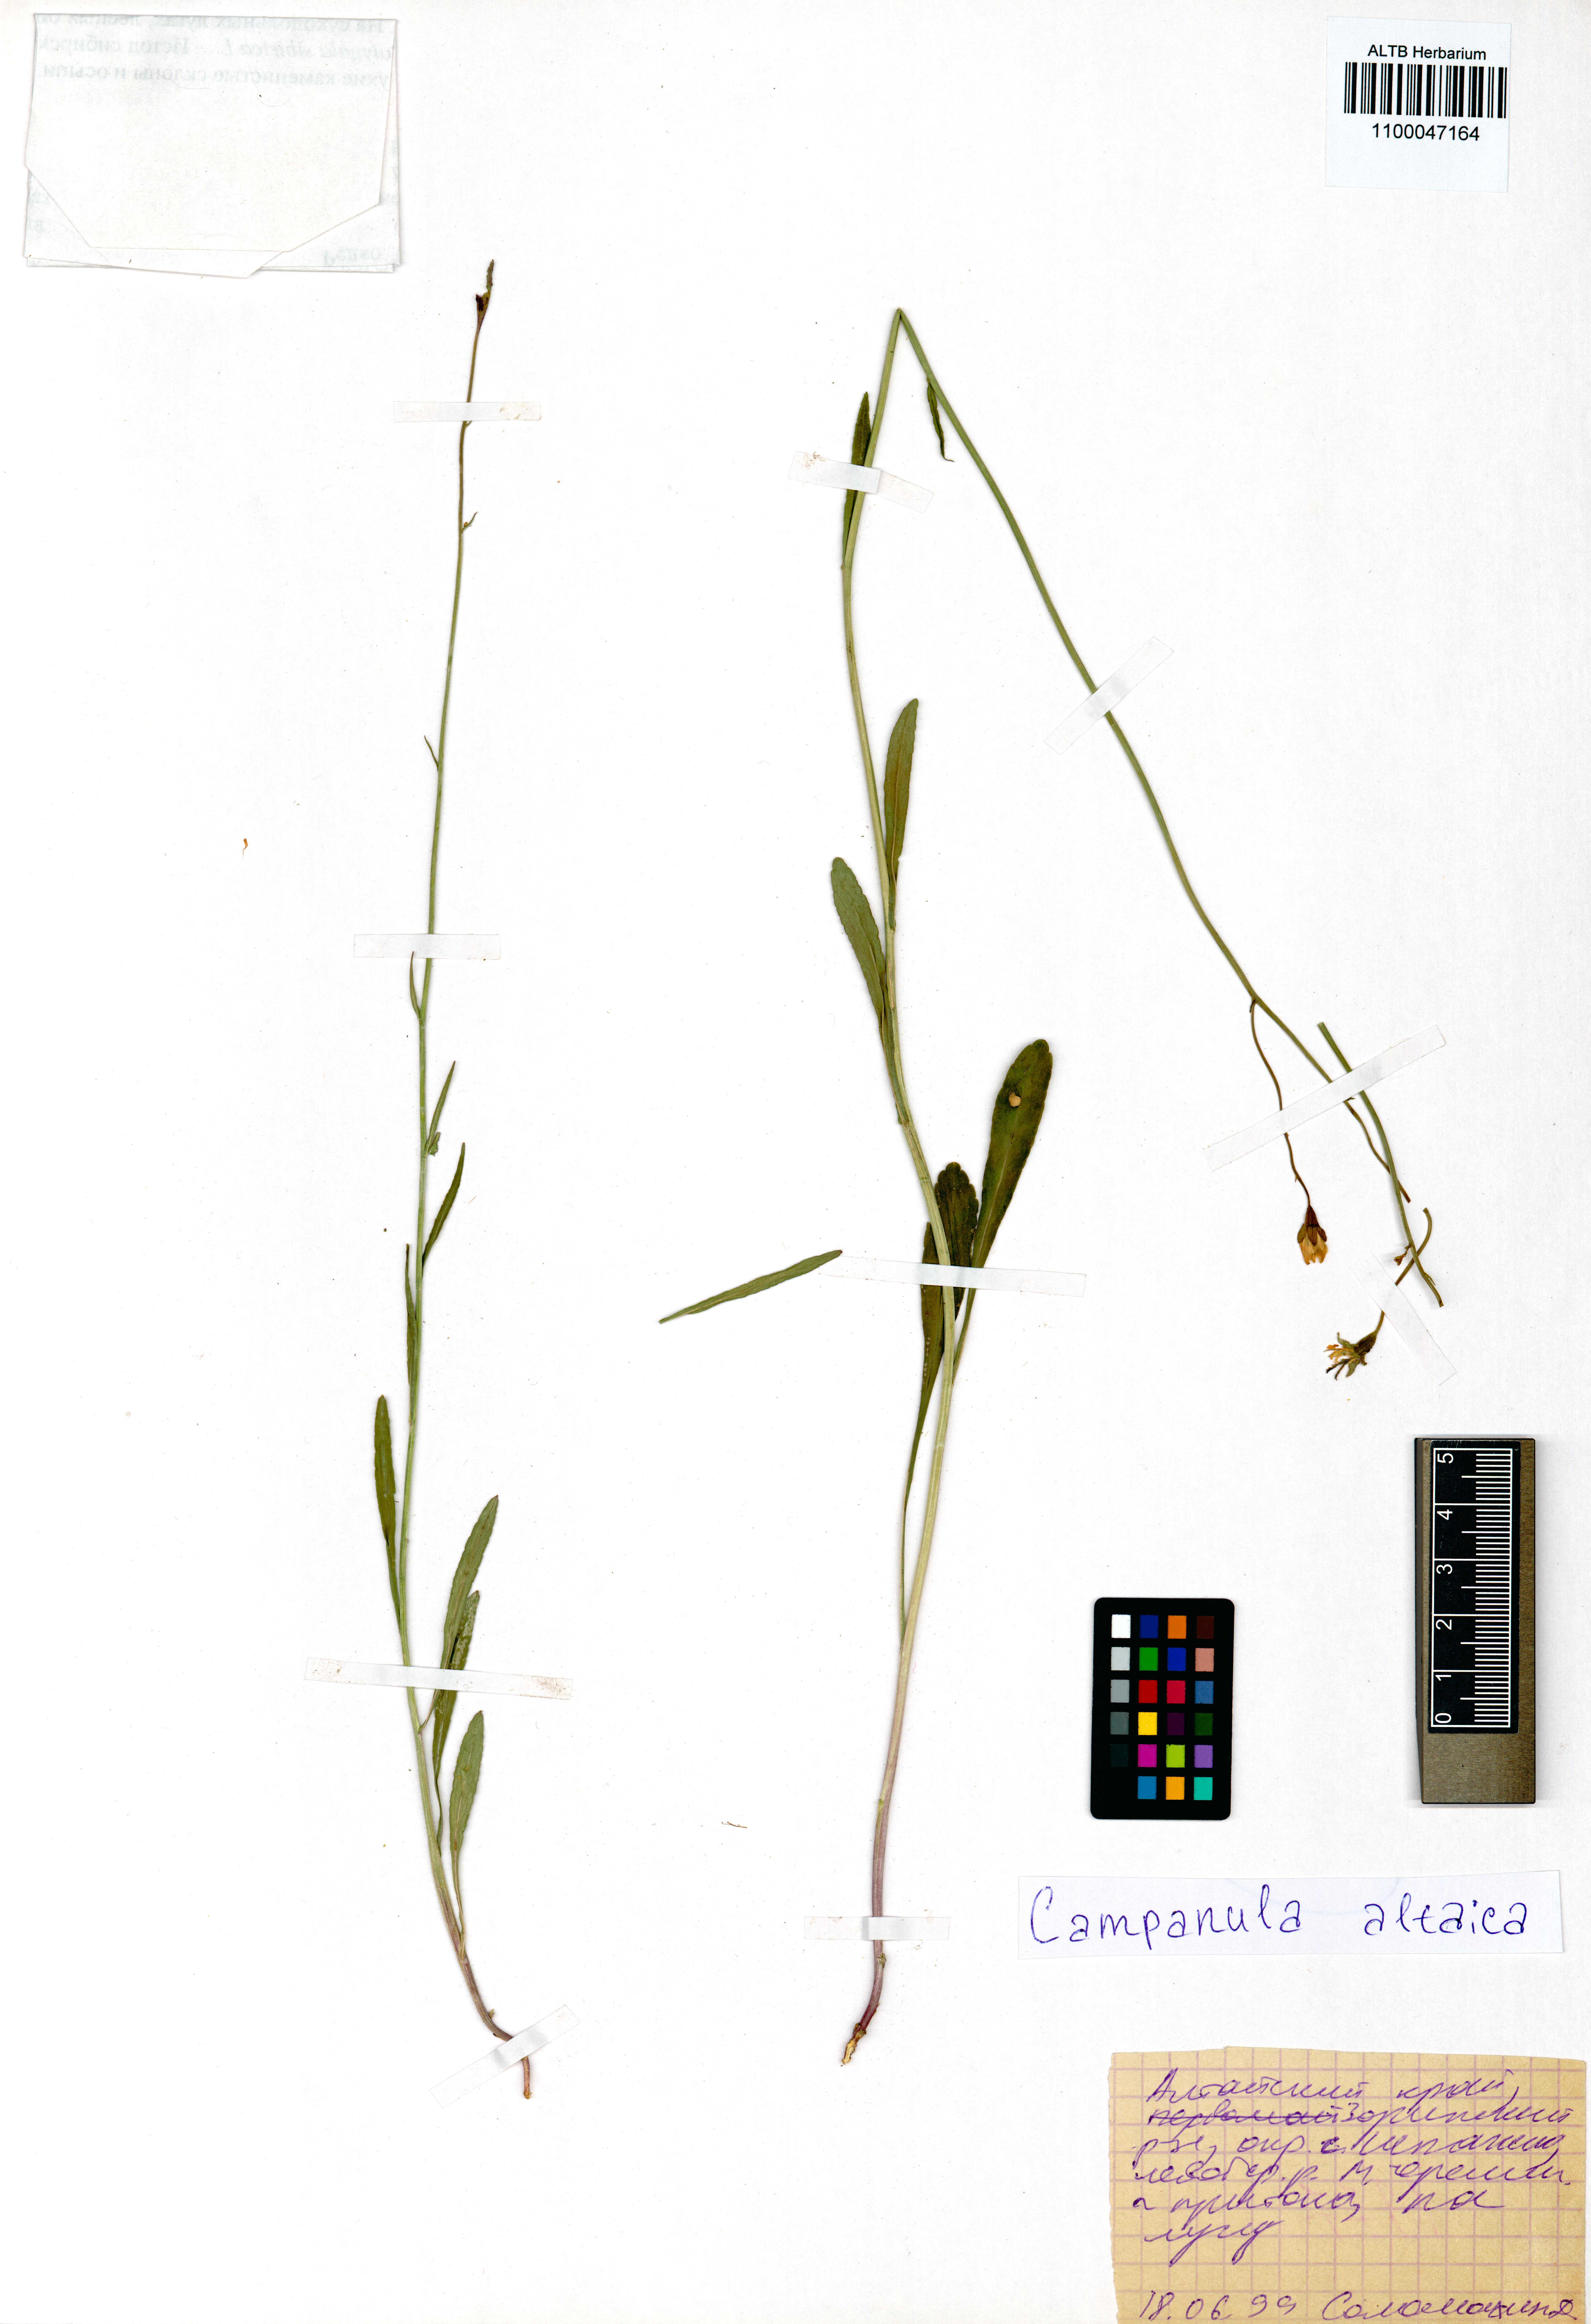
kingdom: Plantae
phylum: Tracheophyta
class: Magnoliopsida
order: Asterales
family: Campanulaceae
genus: Campanula
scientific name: Campanula stevenii
